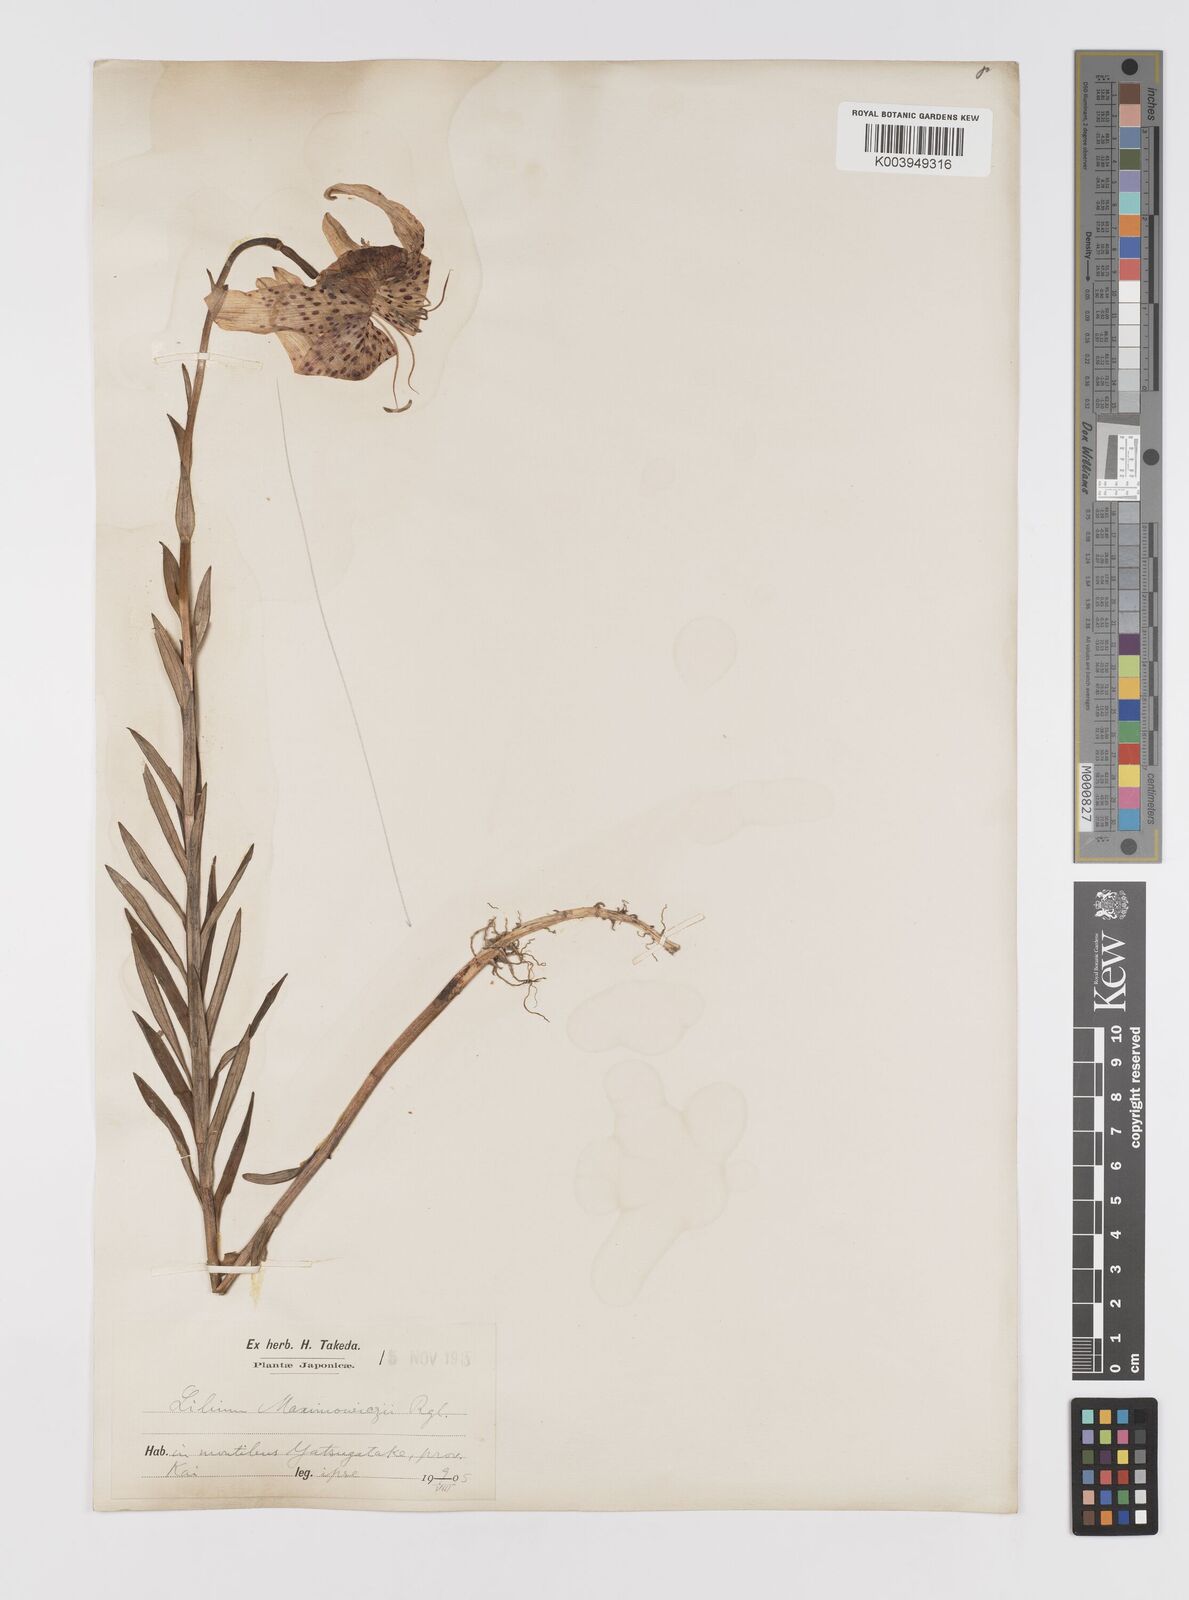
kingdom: Plantae
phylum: Tracheophyta
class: Liliopsida
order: Liliales
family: Liliaceae
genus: Lilium
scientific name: Lilium leichtlinii
